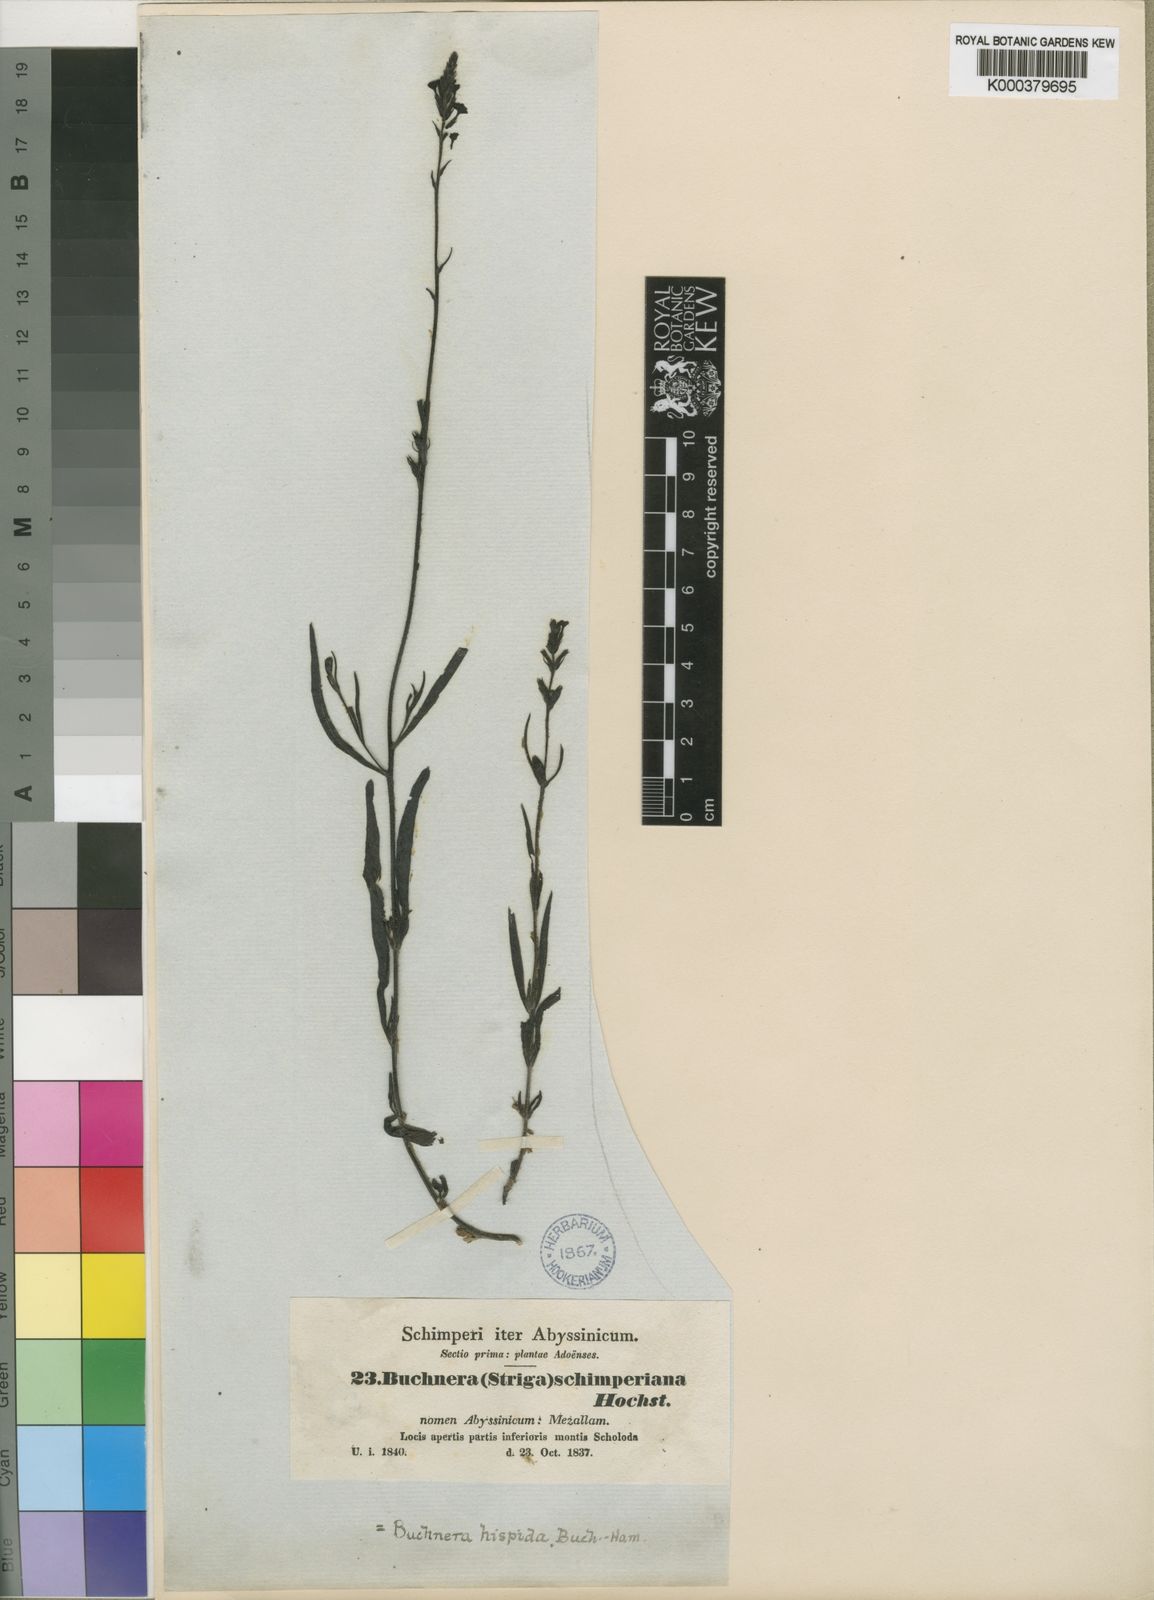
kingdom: Plantae
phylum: Tracheophyta
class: Magnoliopsida
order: Lamiales
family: Orobanchaceae
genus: Buchnera
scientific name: Buchnera hispida
